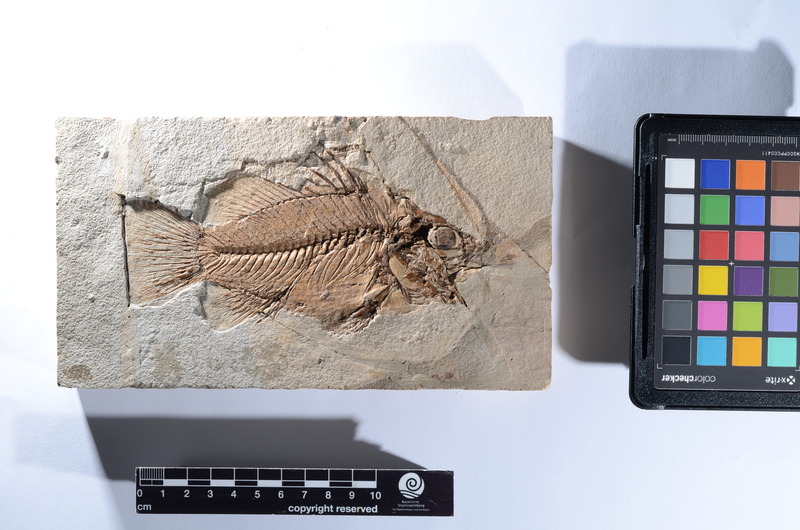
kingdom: Animalia
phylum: Chordata
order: Perciformes
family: Latidae
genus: Lates
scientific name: Lates gracilis
